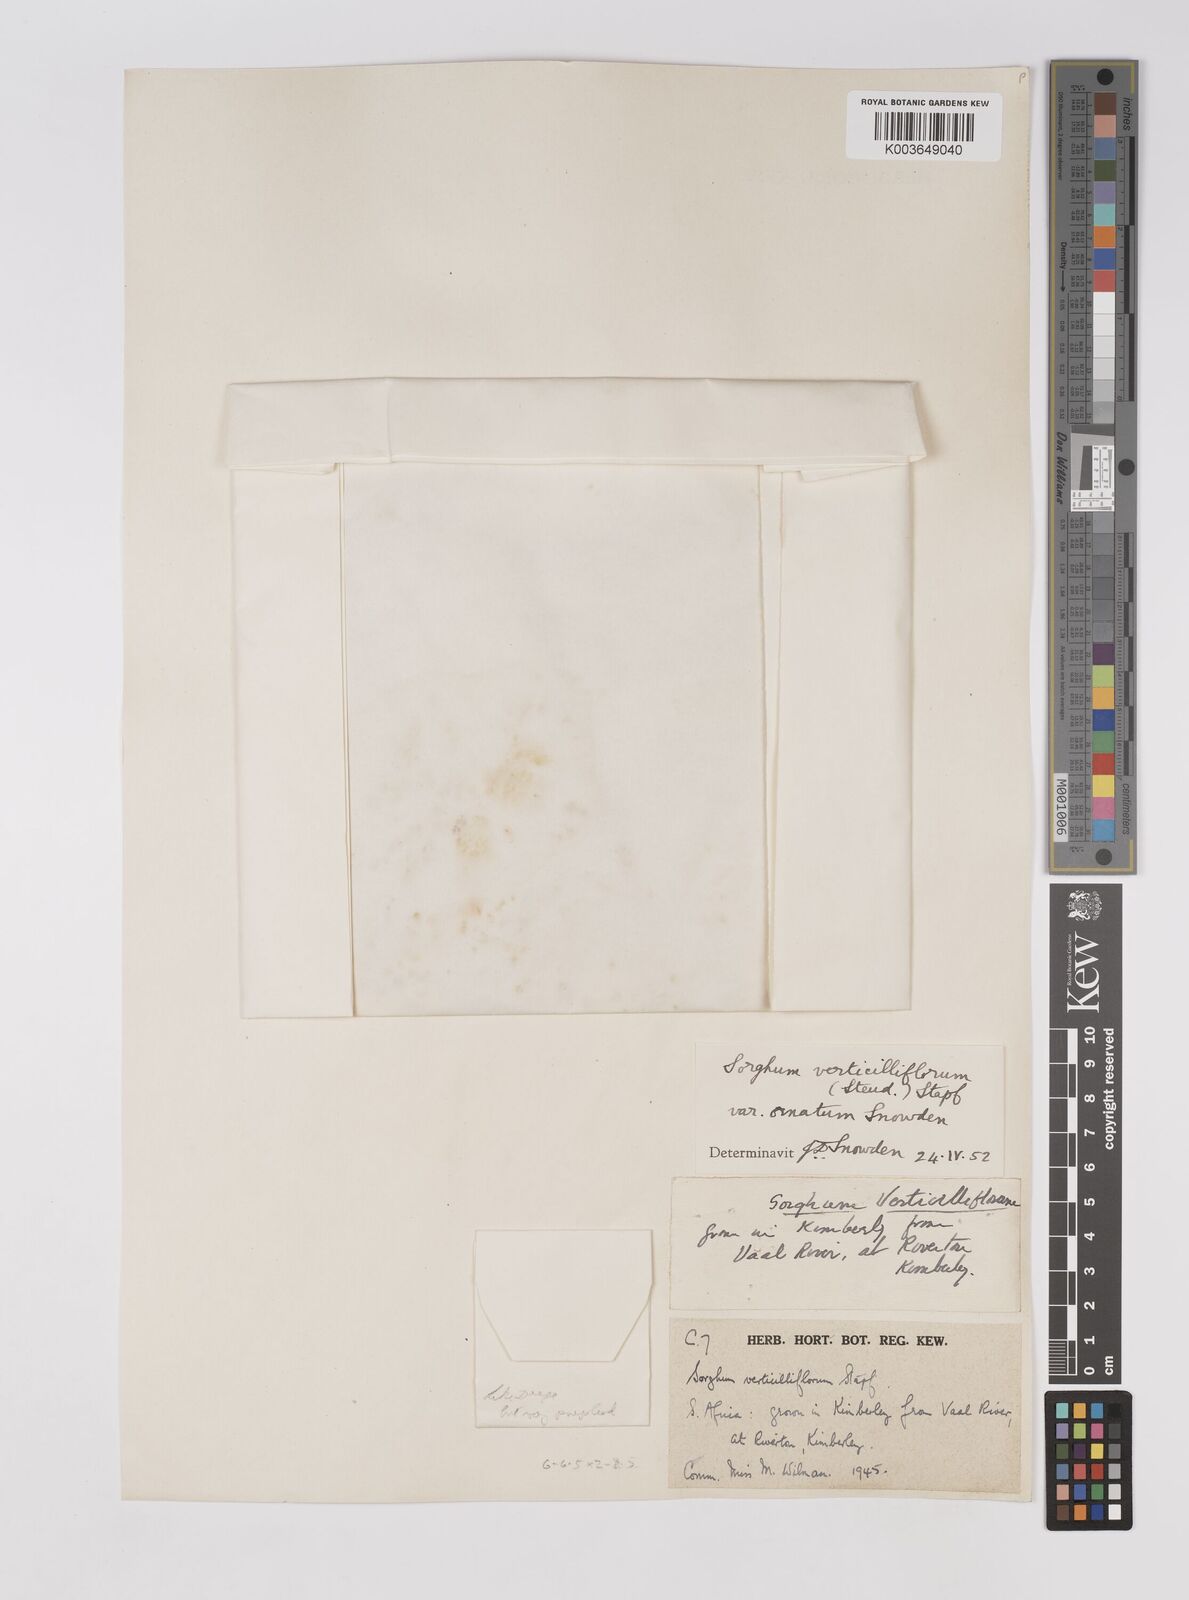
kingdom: Plantae
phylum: Tracheophyta
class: Liliopsida
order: Poales
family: Poaceae
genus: Sorghum
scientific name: Sorghum arundinaceum
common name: Sorghum
